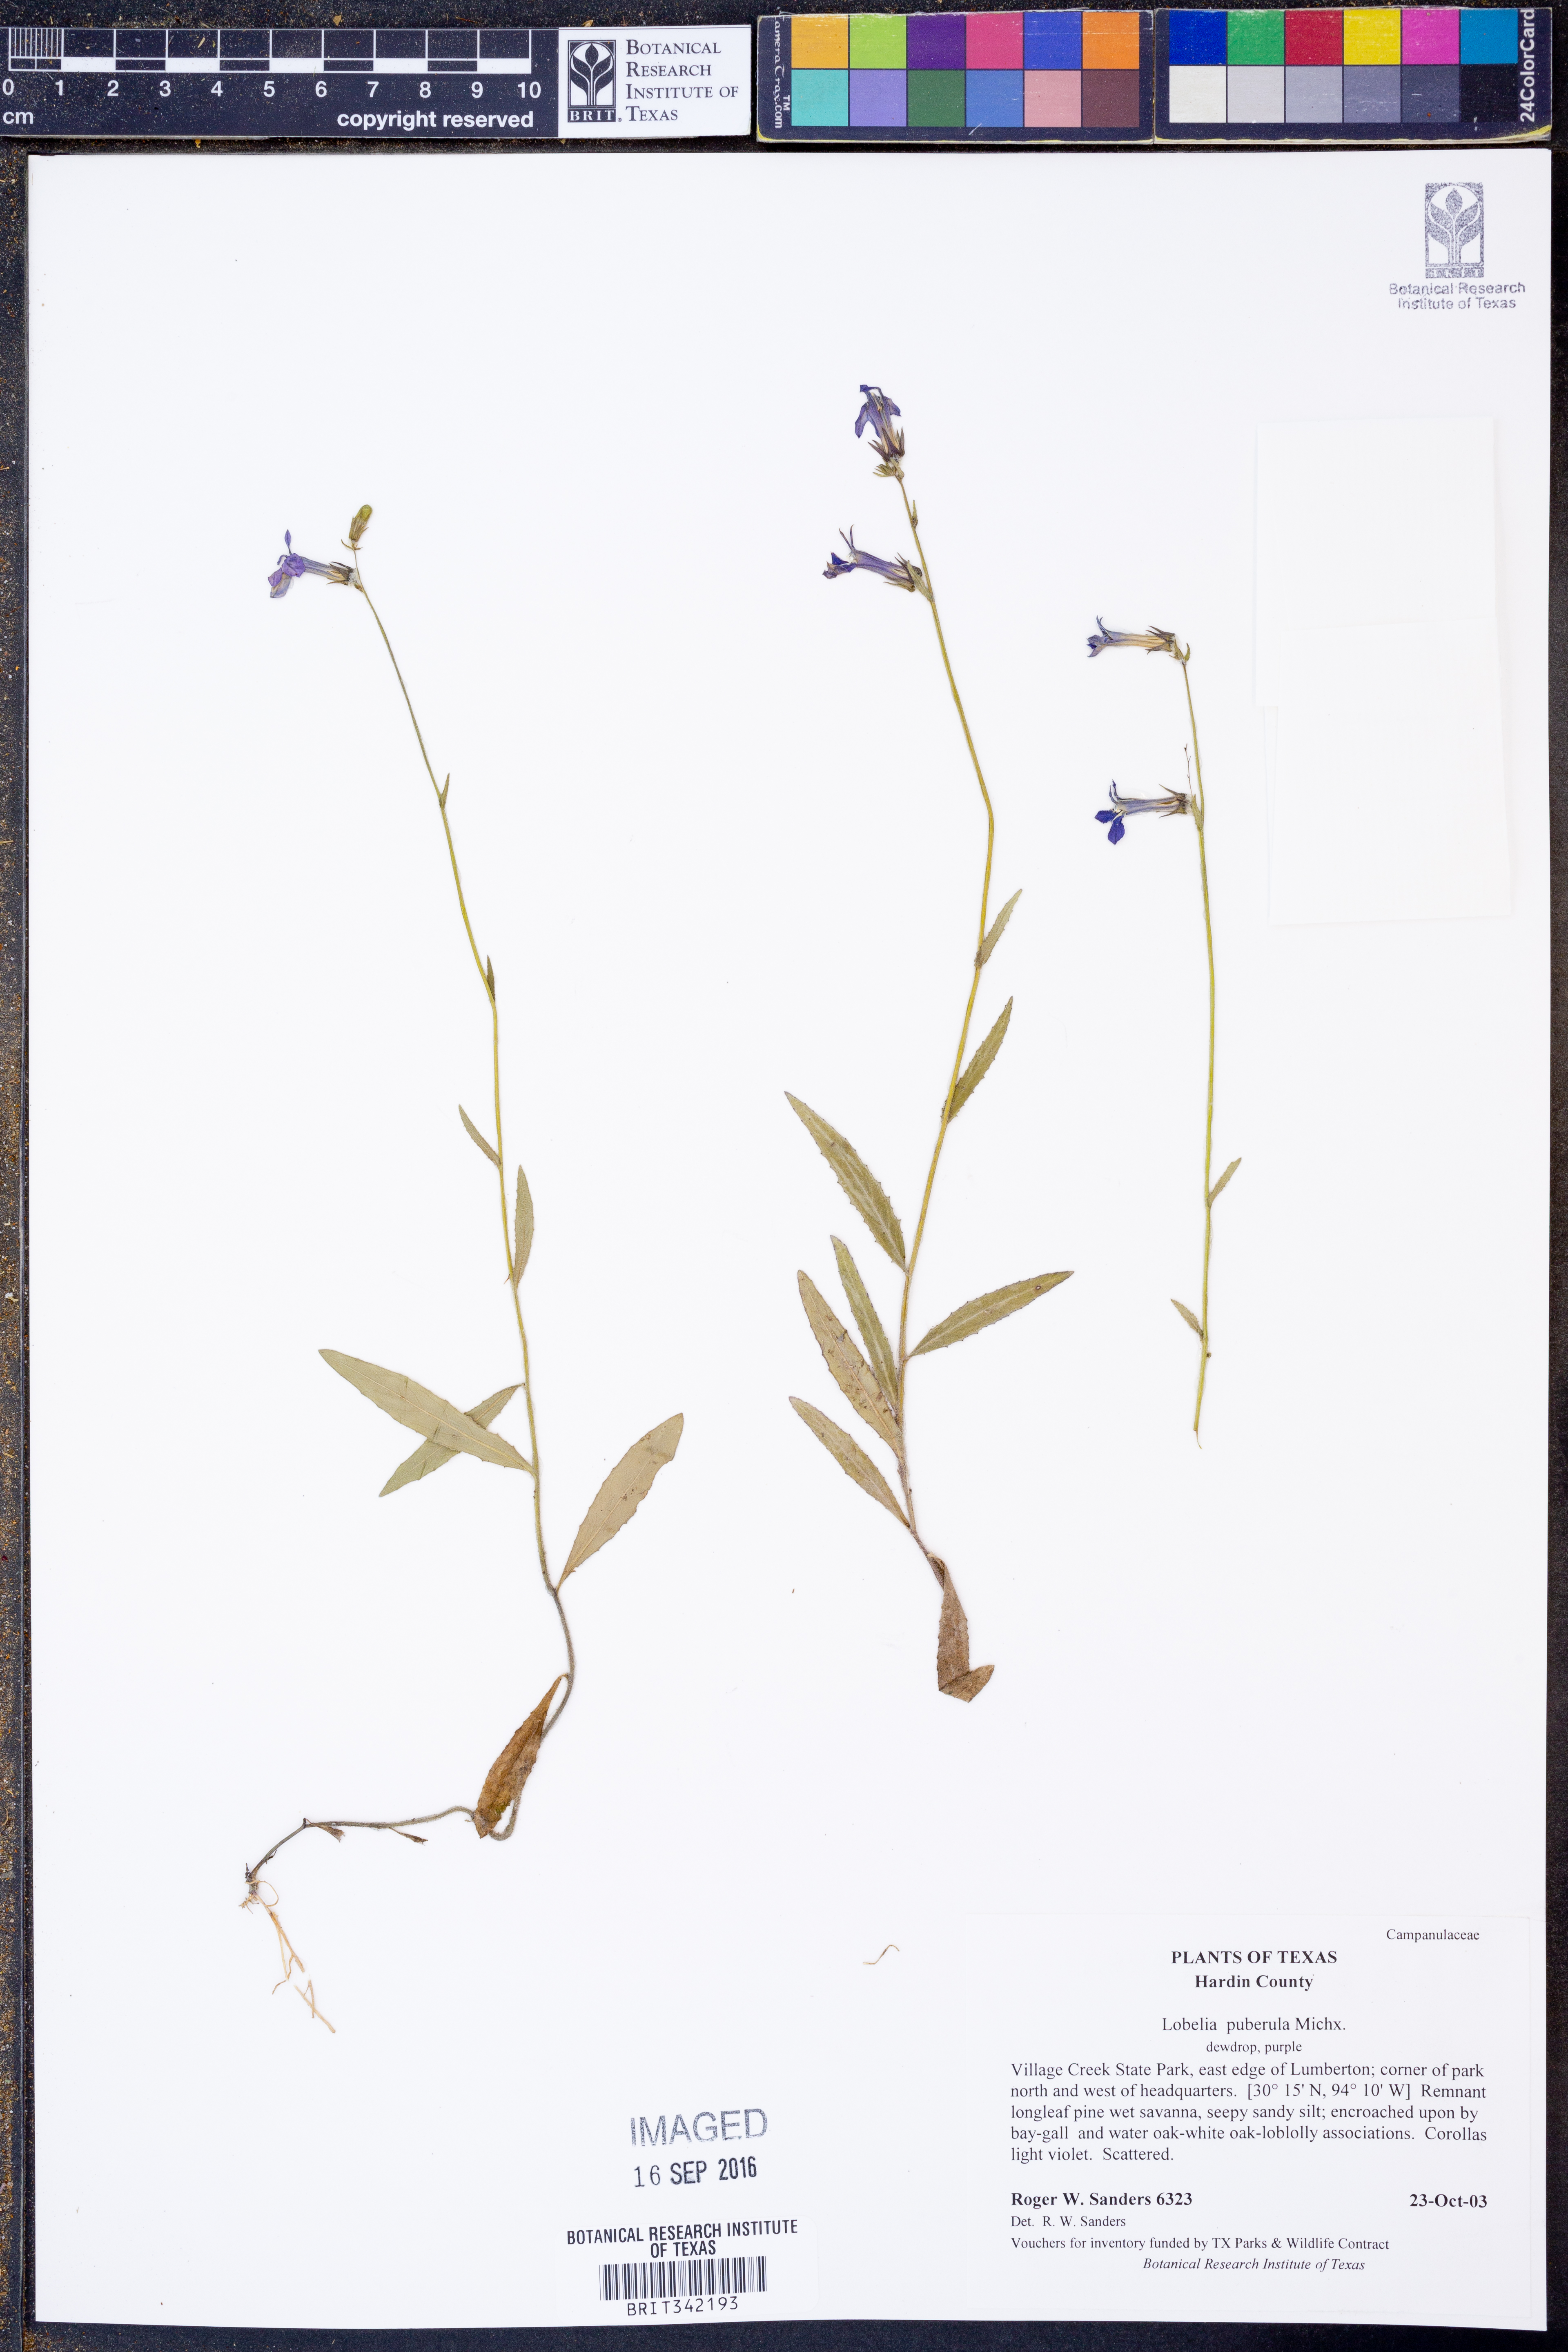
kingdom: Plantae
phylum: Tracheophyta
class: Magnoliopsida
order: Asterales
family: Campanulaceae
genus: Lobelia
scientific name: Lobelia puberula
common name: Purple dewdrop
